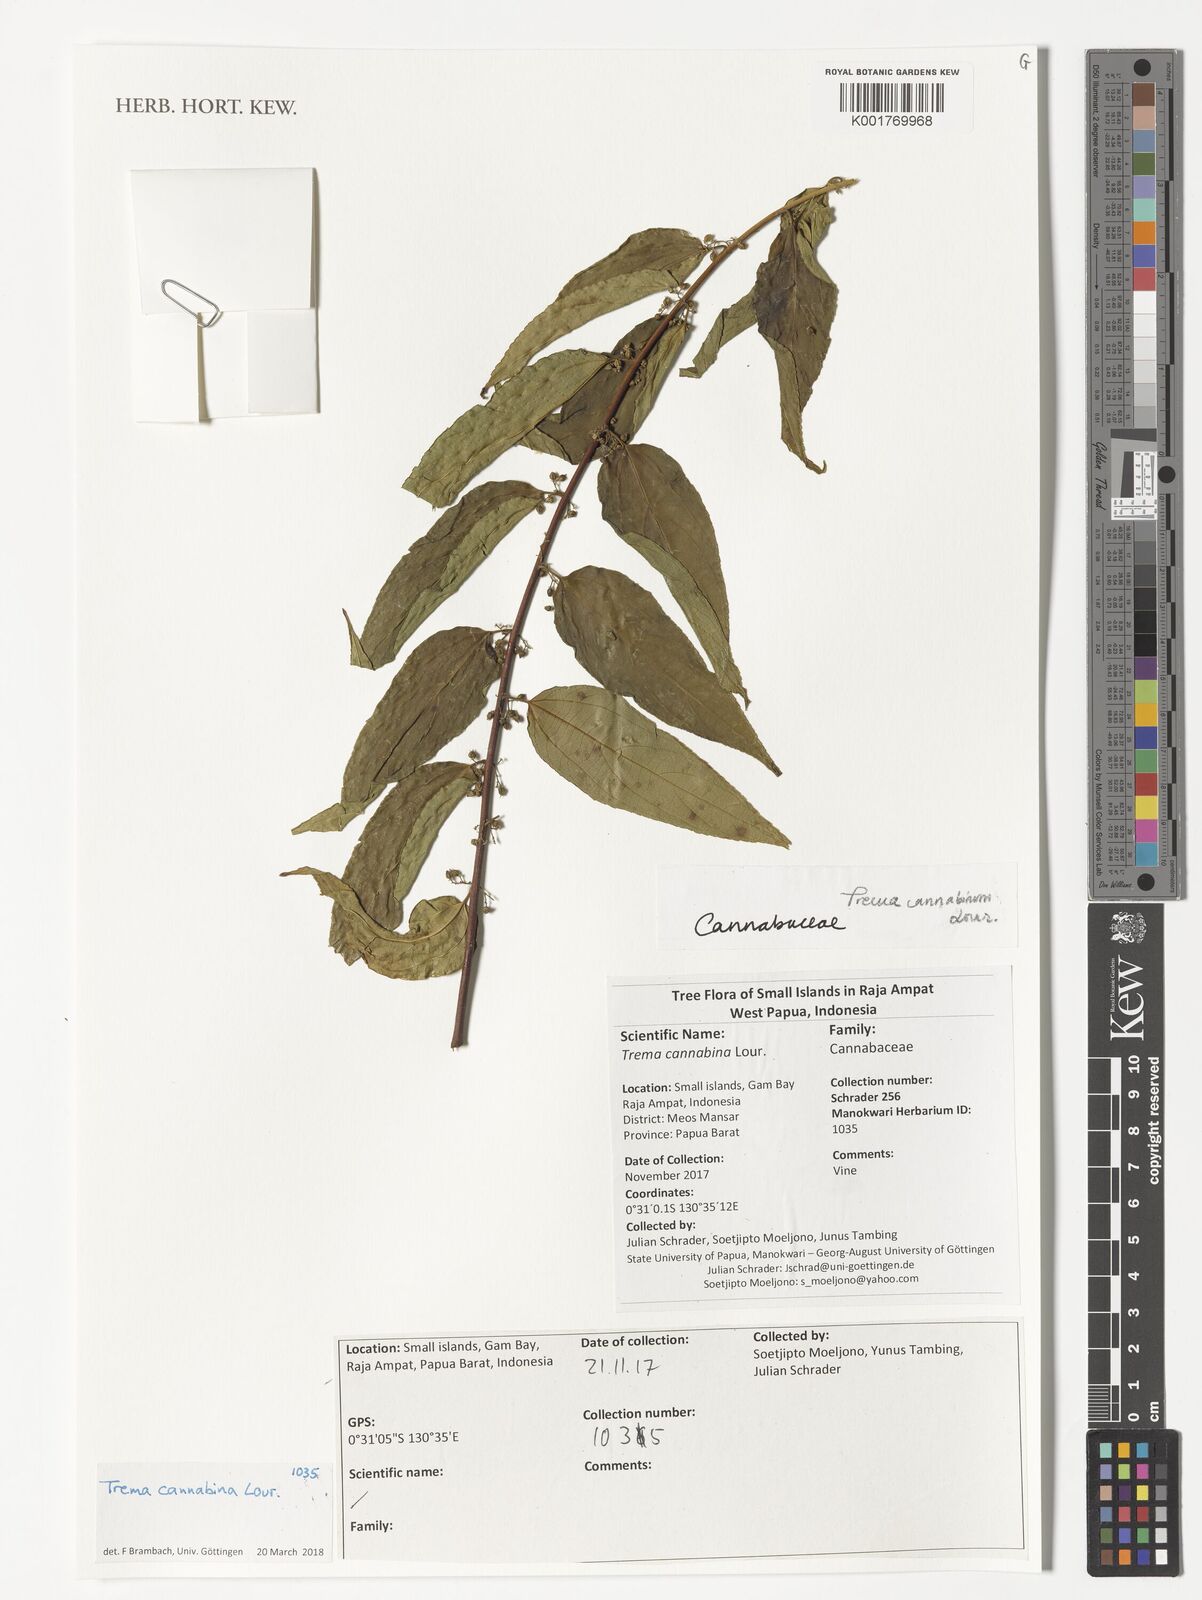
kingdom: Plantae
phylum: Tracheophyta
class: Magnoliopsida
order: Rosales
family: Cannabaceae
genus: Trema
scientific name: Trema
